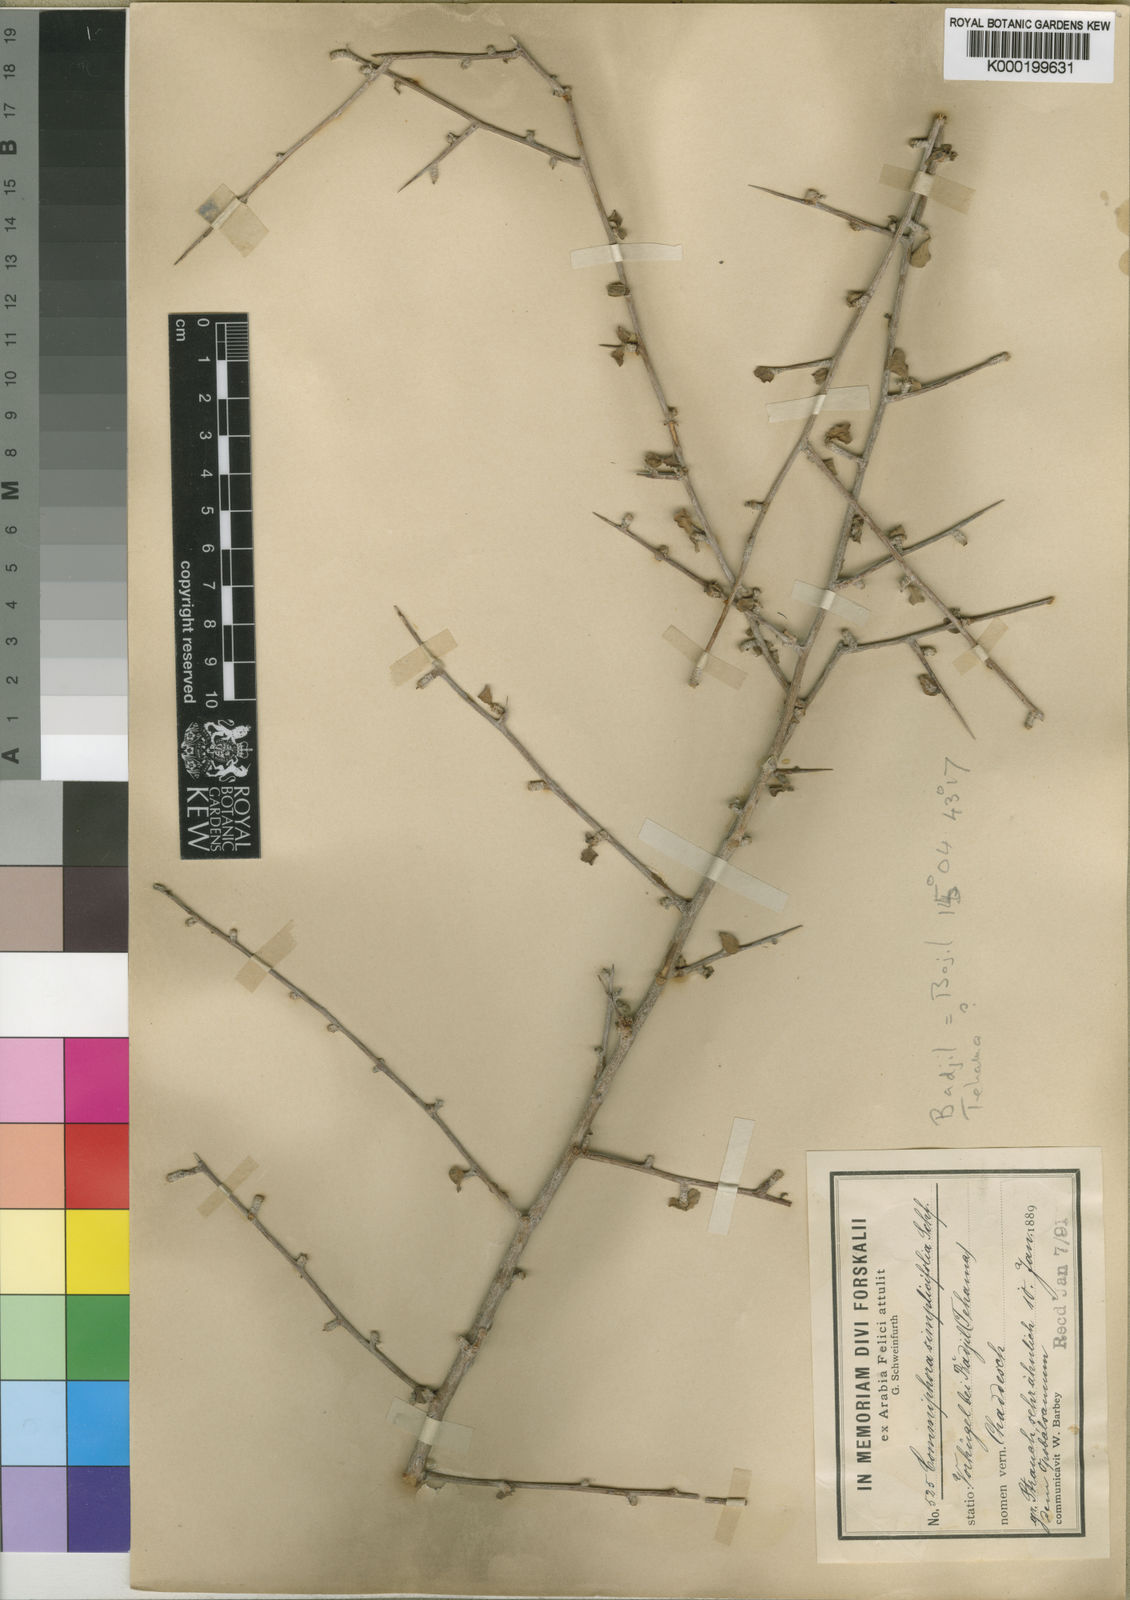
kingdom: Plantae
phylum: Tracheophyta
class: Magnoliopsida
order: Sapindales
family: Burseraceae
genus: Commiphora
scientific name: Commiphora kua
